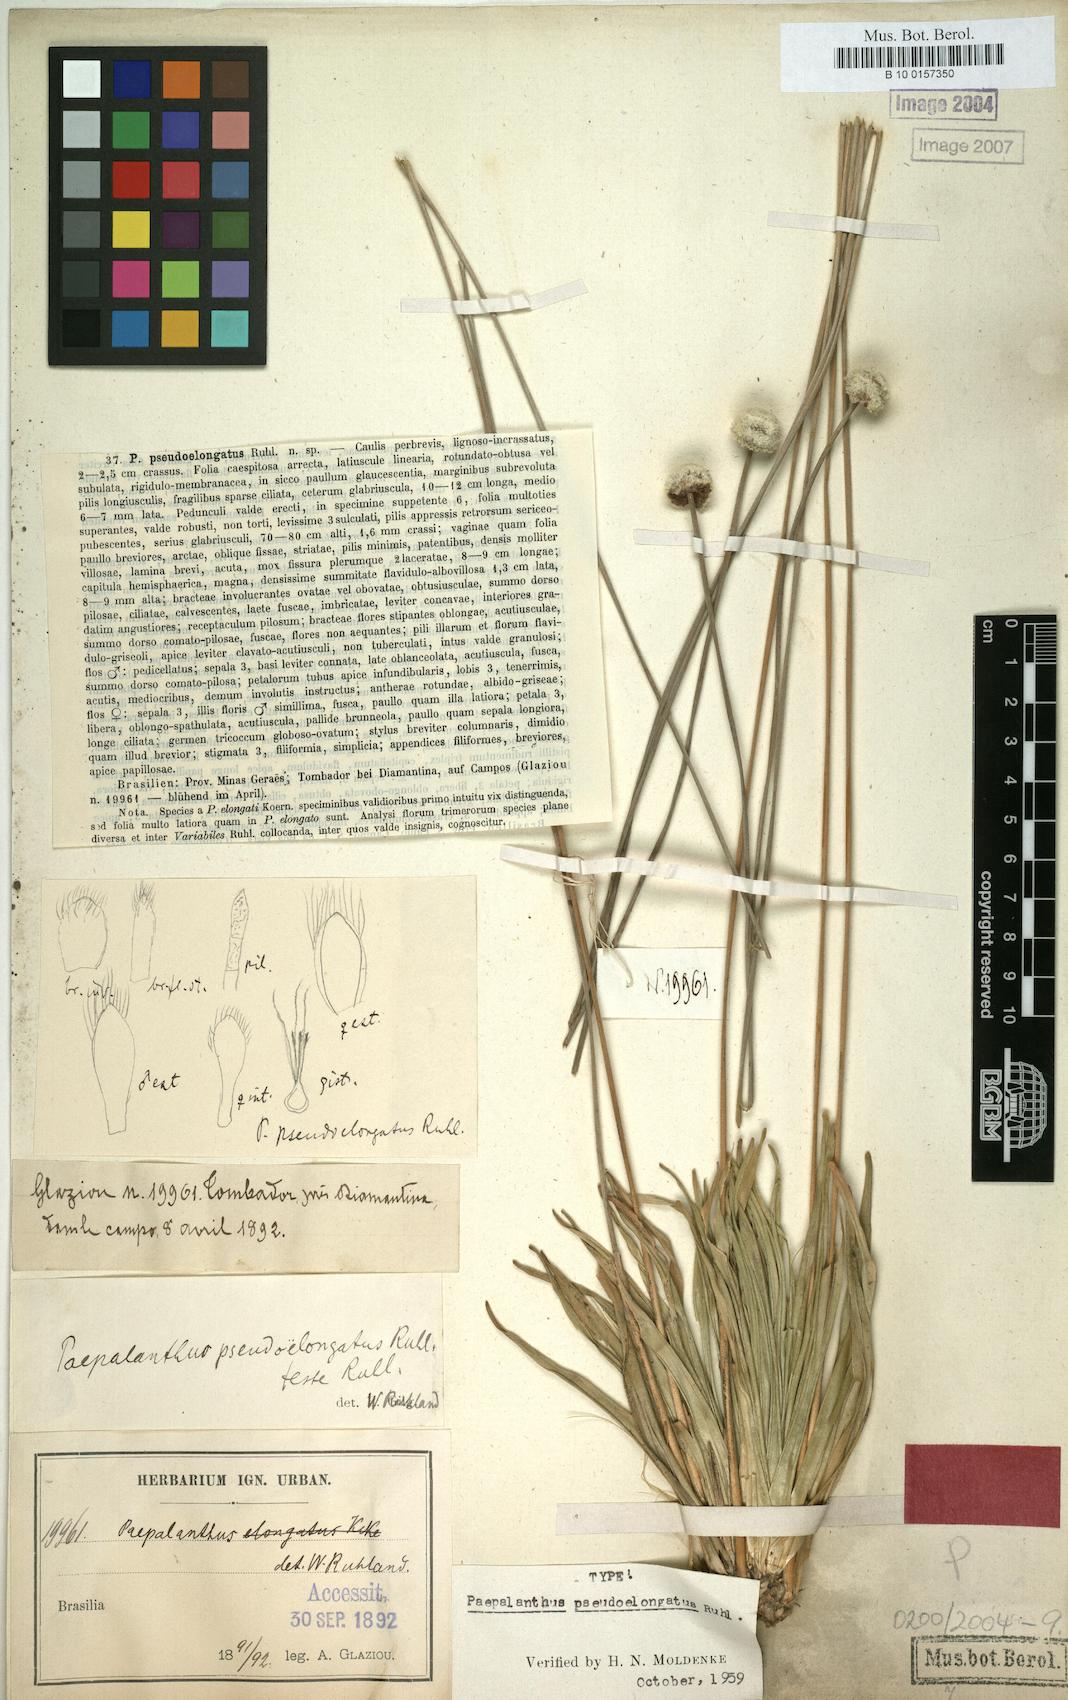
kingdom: Plantae
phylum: Tracheophyta
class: Liliopsida
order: Poales
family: Eriocaulaceae
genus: Paepalanthus
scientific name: Paepalanthus pseudoelongatus
